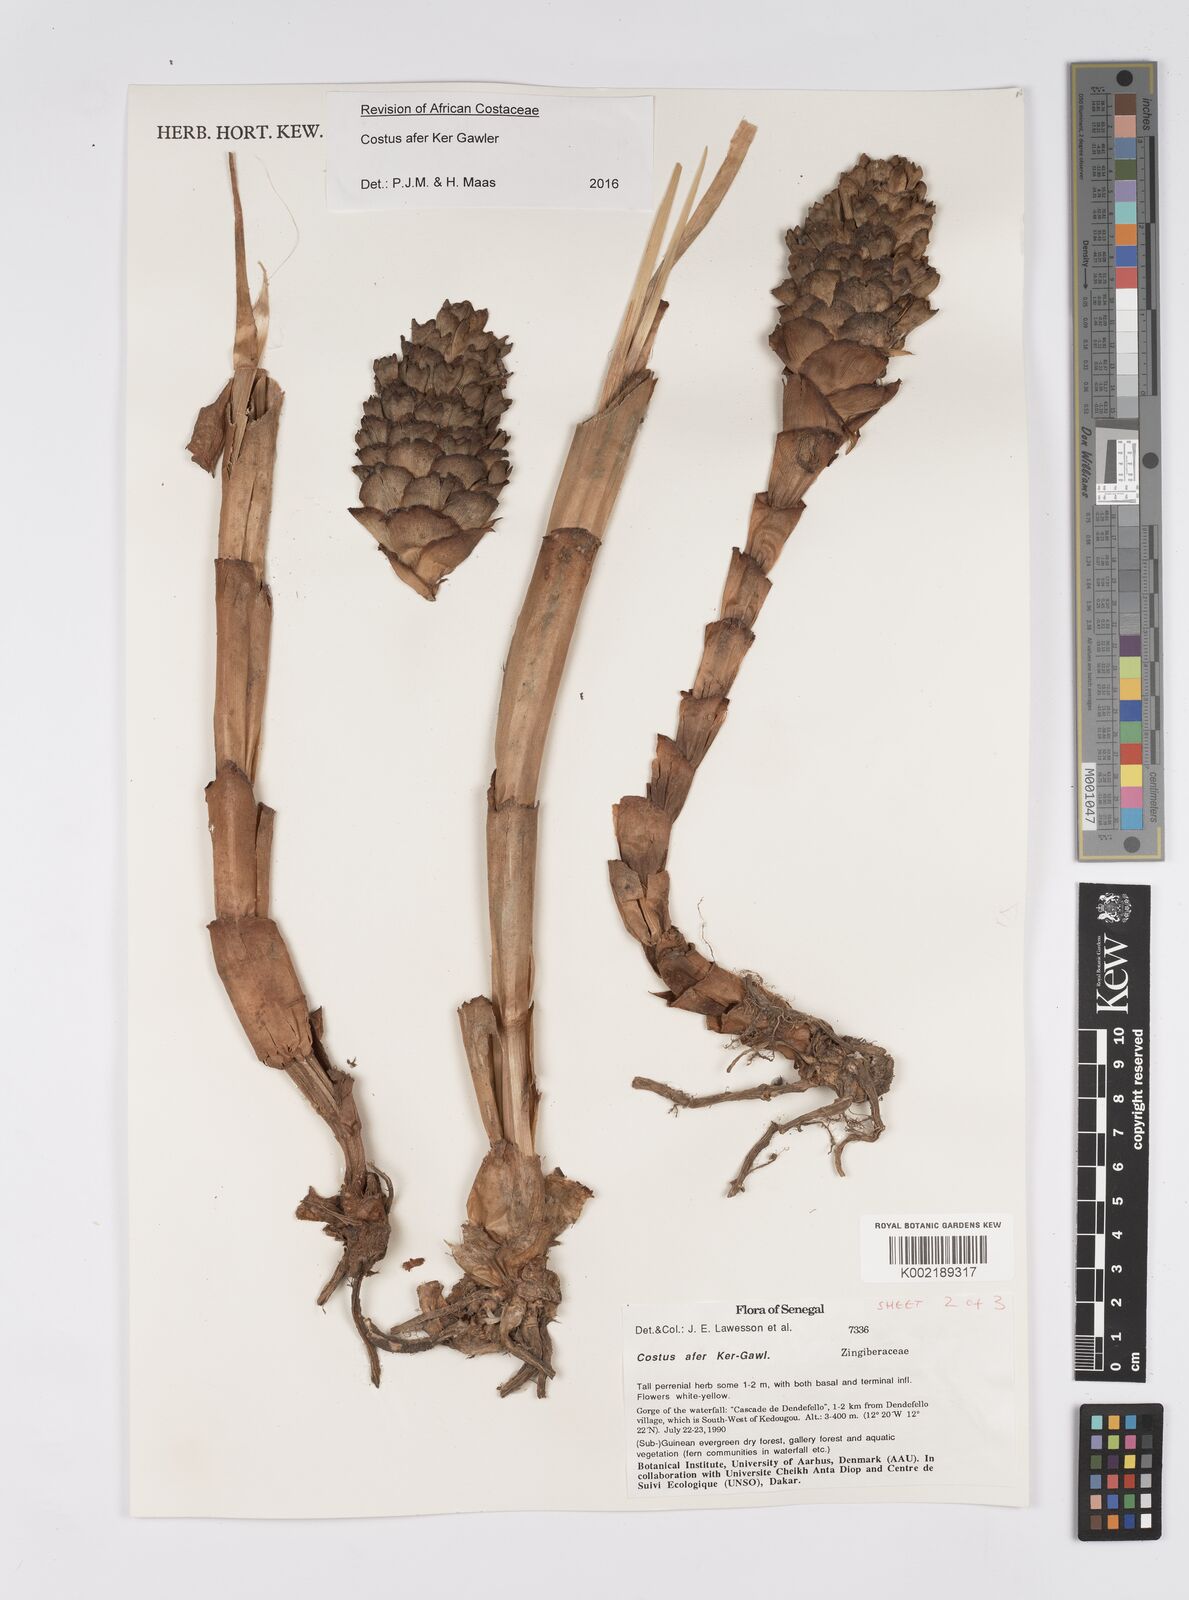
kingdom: Plantae
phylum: Tracheophyta
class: Liliopsida
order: Zingiberales
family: Costaceae
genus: Costus
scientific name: Costus afer
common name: Spiral-ginger
